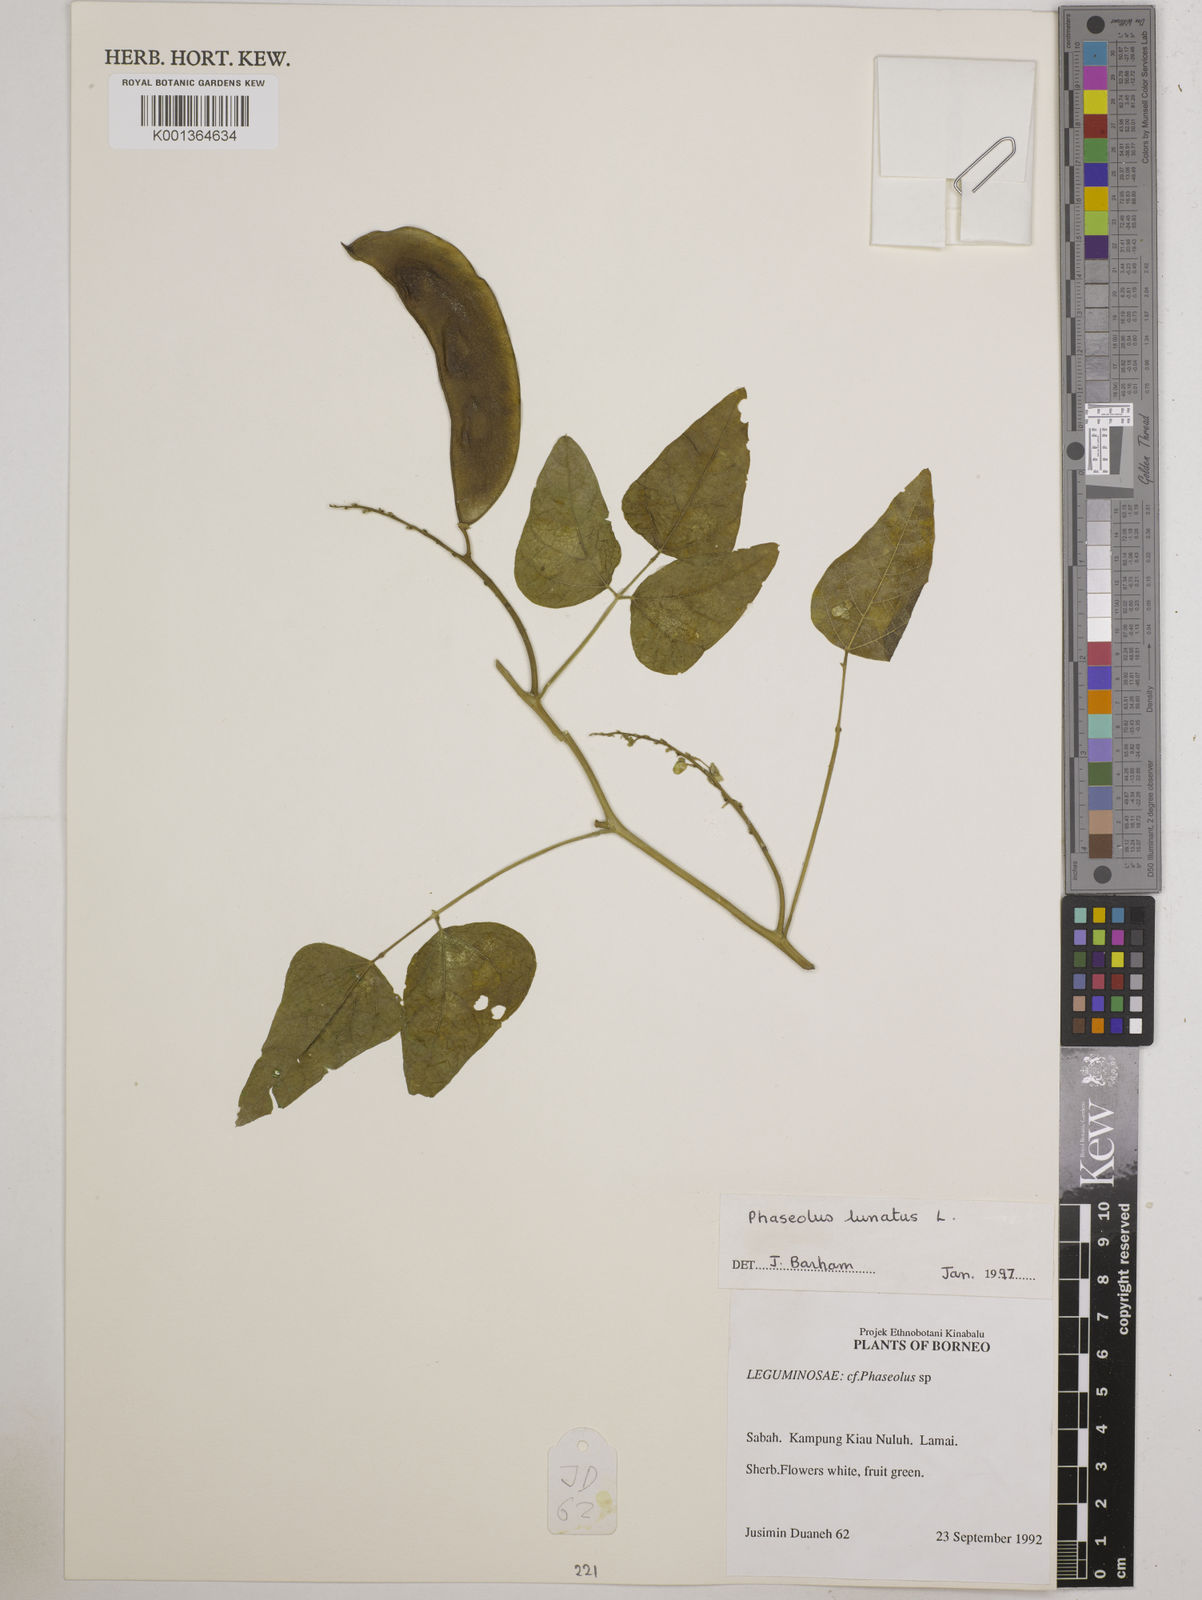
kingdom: Plantae
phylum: Tracheophyta
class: Magnoliopsida
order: Fabales
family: Fabaceae
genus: Phaseolus
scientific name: Phaseolus lunatus
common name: Sieva bean
